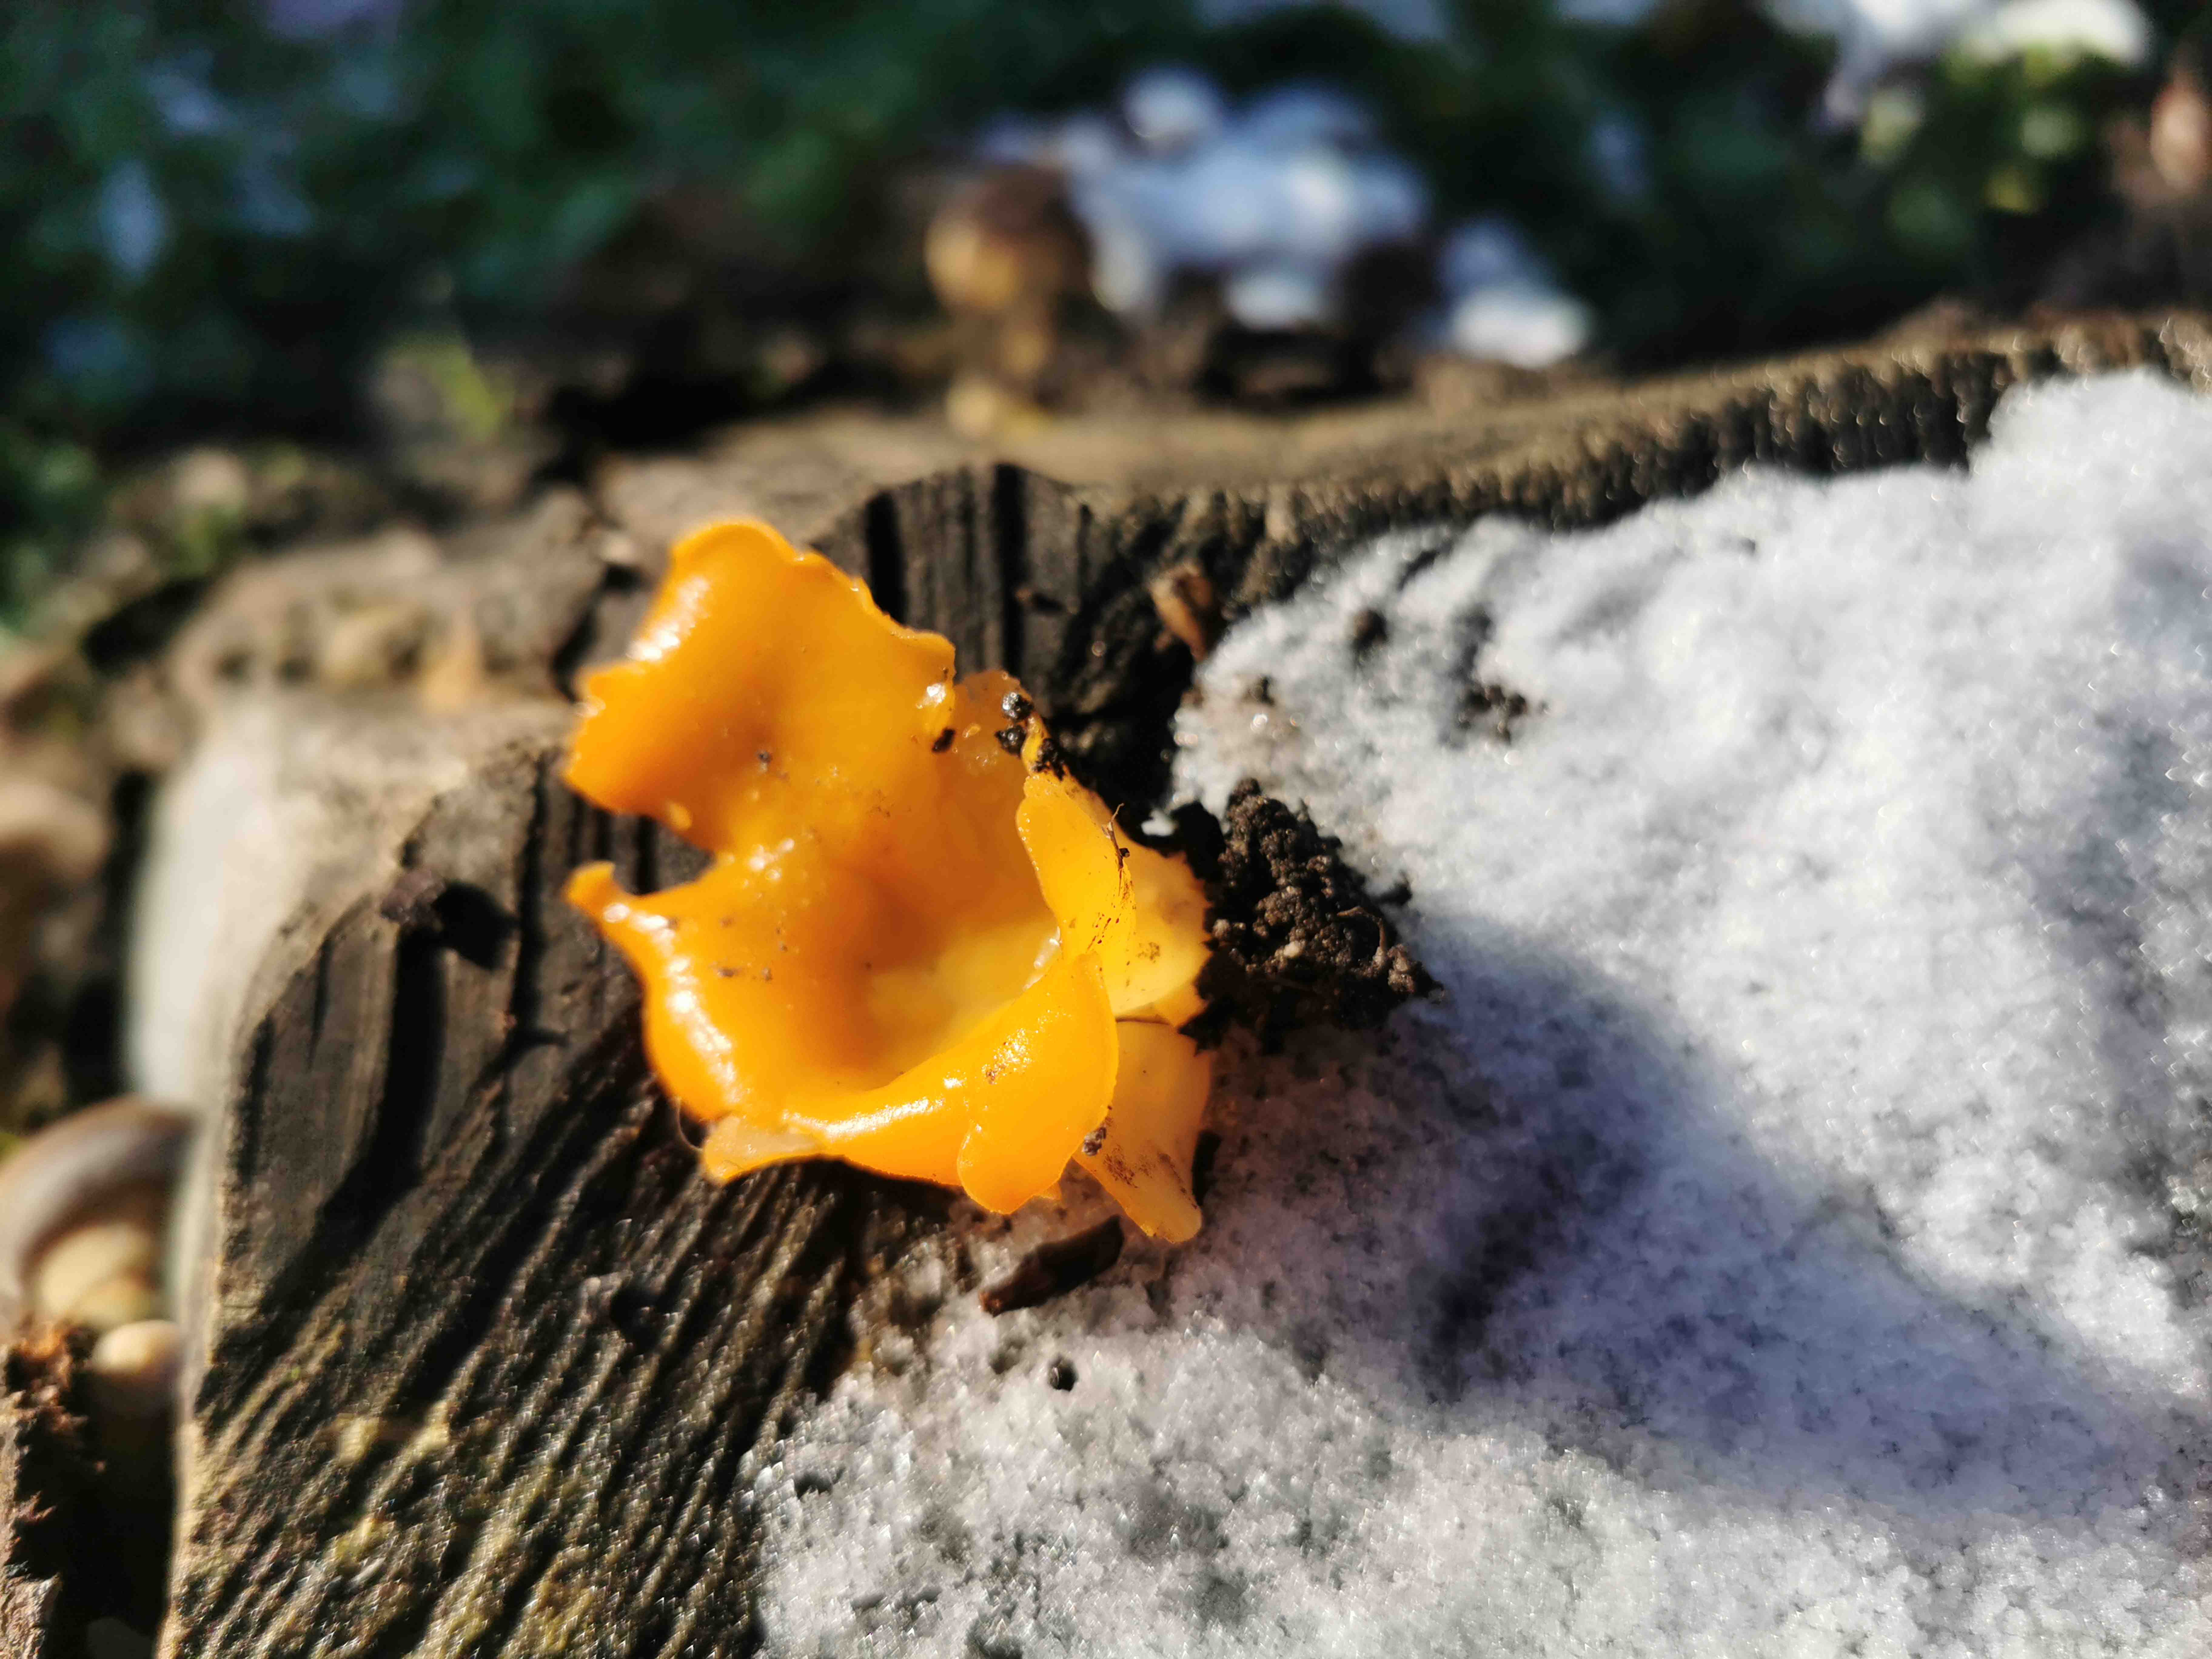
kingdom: Fungi
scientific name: Fungi
